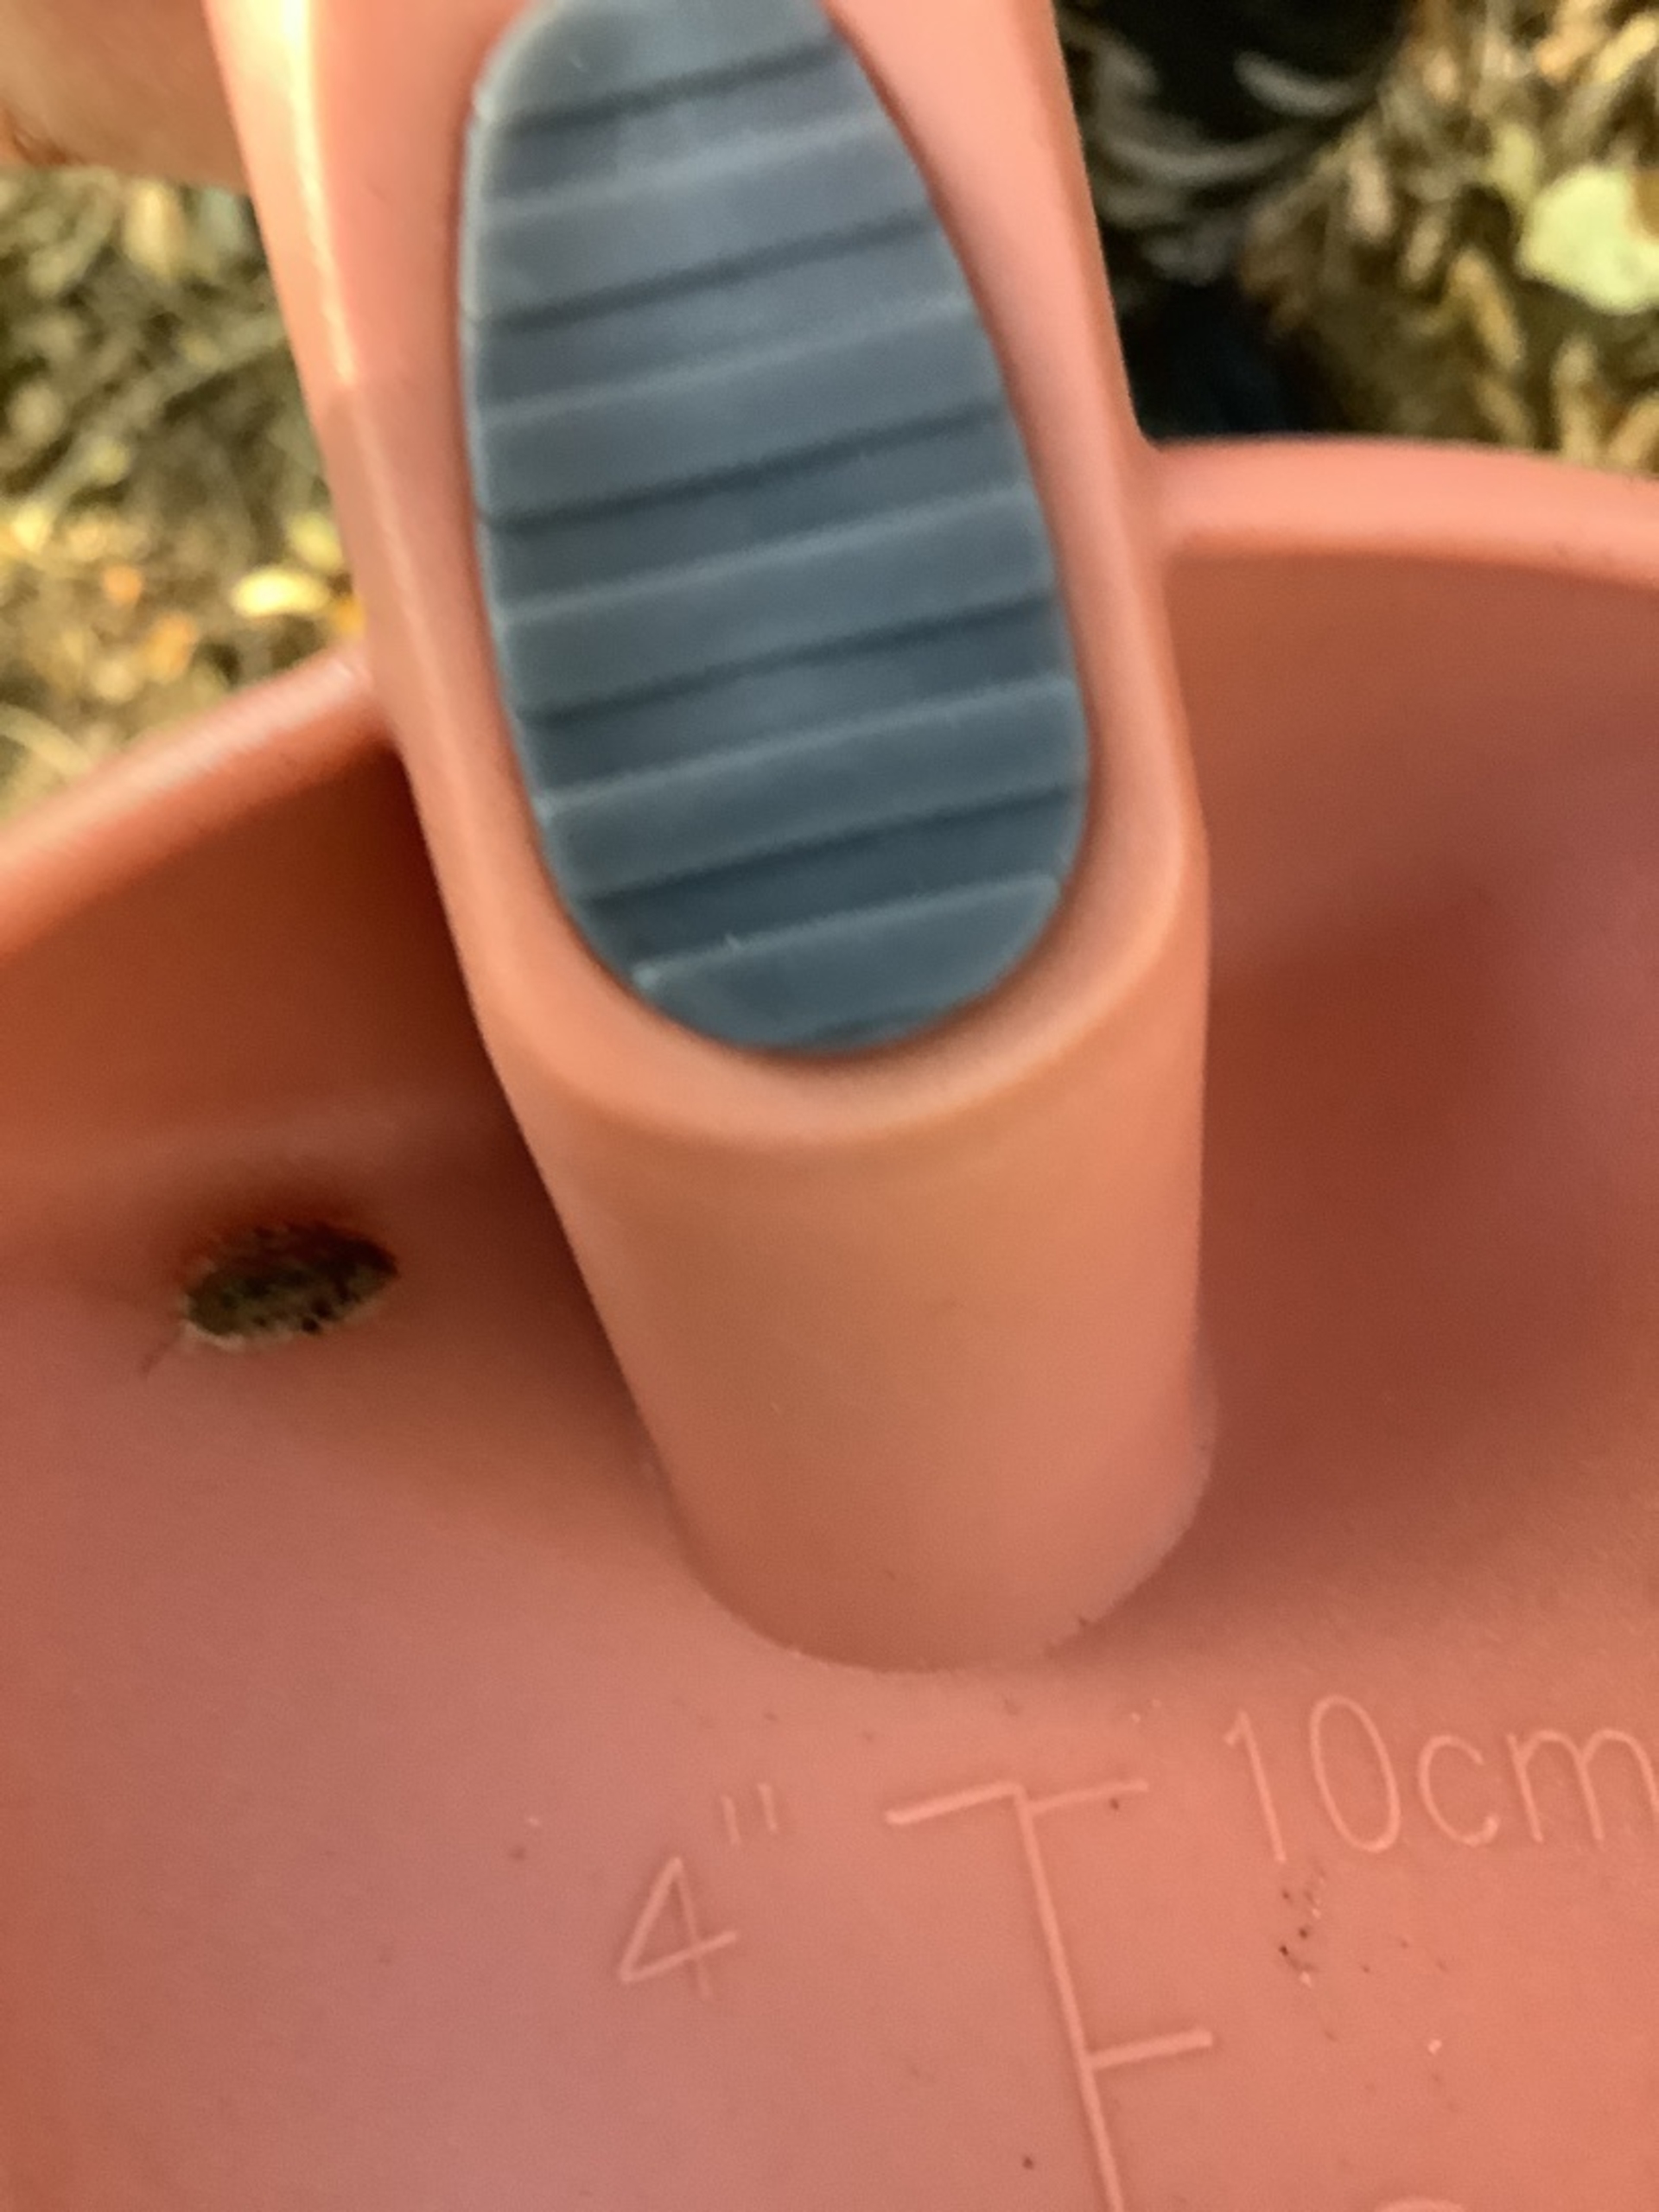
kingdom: Animalia
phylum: Arthropoda
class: Malacostraca
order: Isopoda
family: Oniscidae
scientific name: Oniscidae
